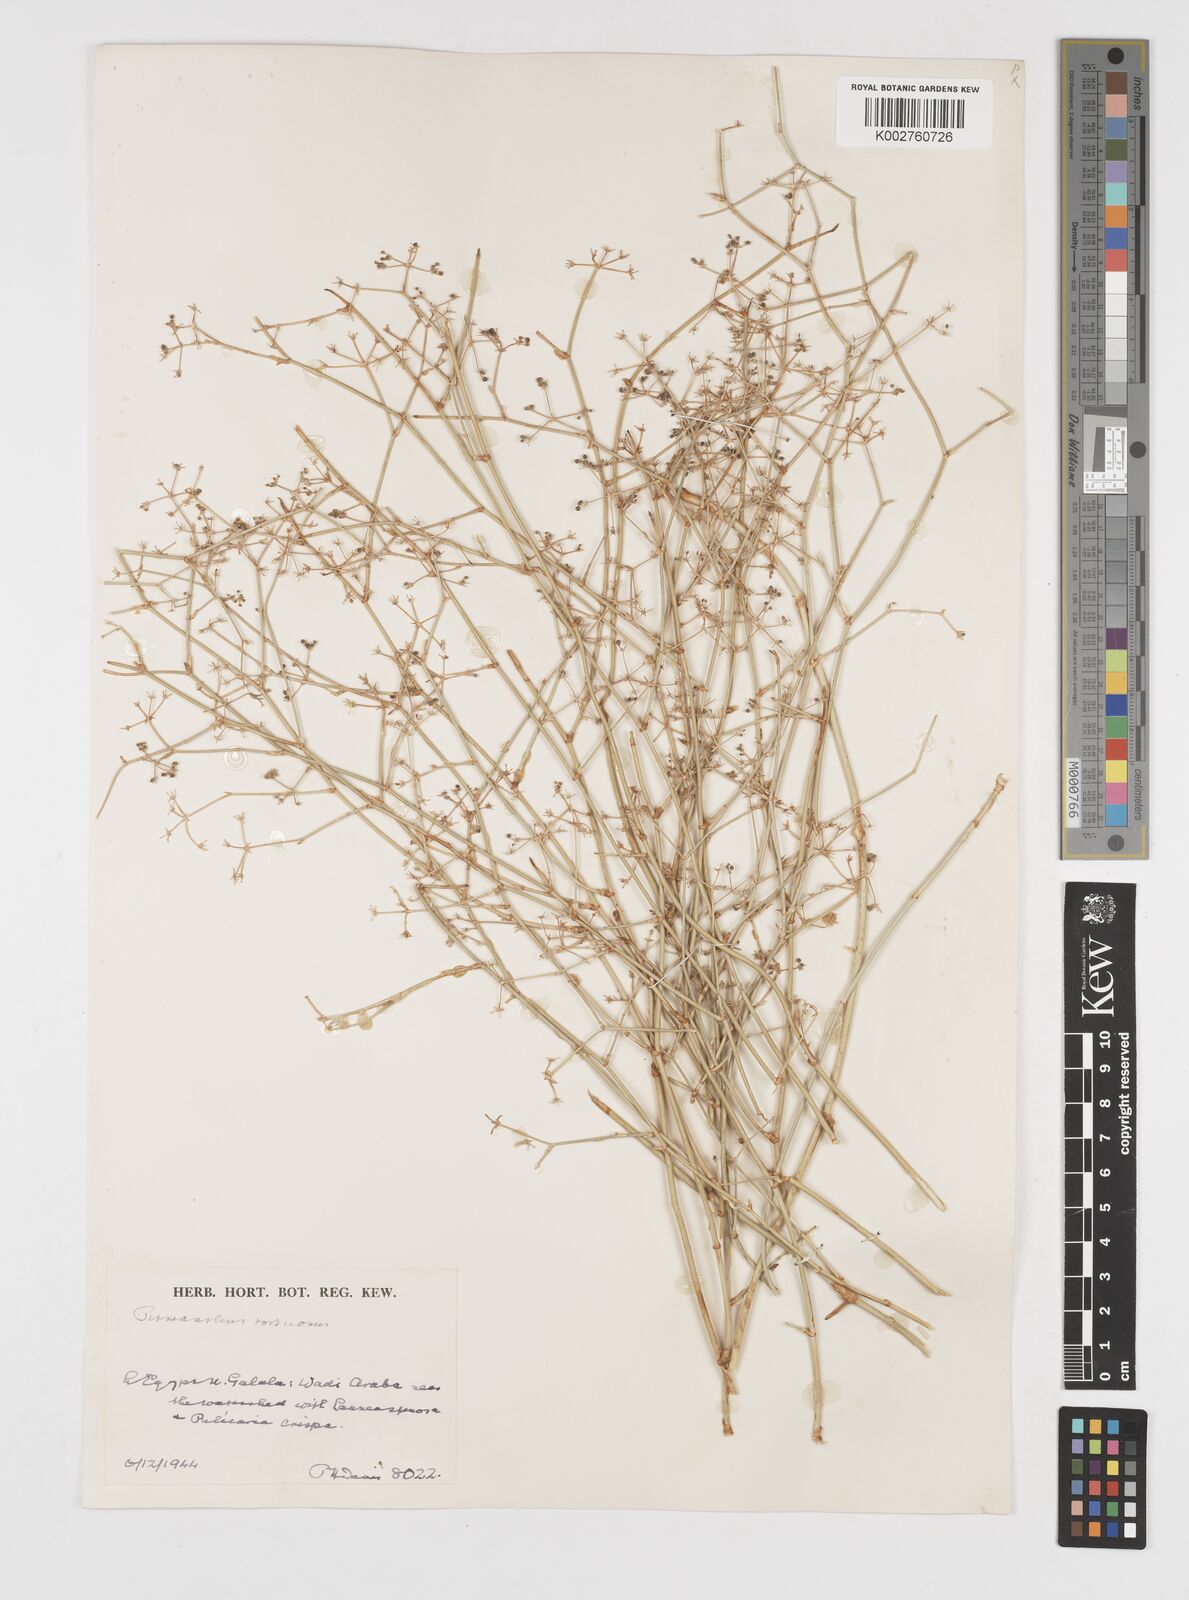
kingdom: Plantae
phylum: Tracheophyta
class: Magnoliopsida
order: Apiales
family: Apiaceae
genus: Deverra
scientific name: Deverra tortuosa
